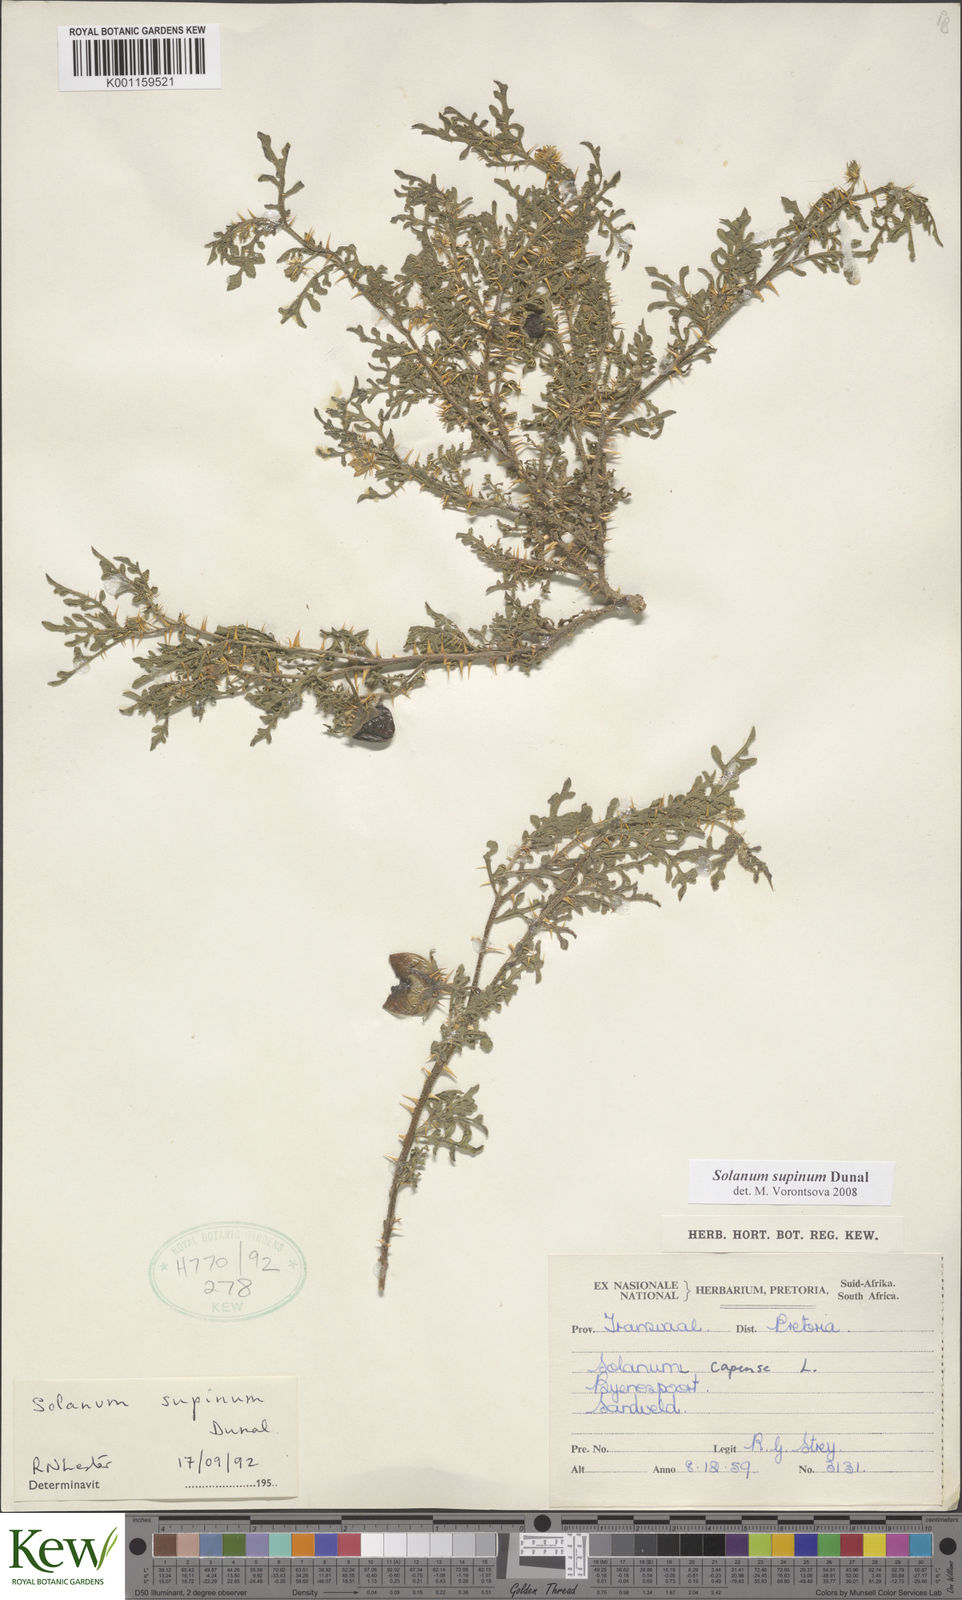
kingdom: Plantae
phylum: Tracheophyta
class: Magnoliopsida
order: Solanales
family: Solanaceae
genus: Solanum
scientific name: Solanum supinum
